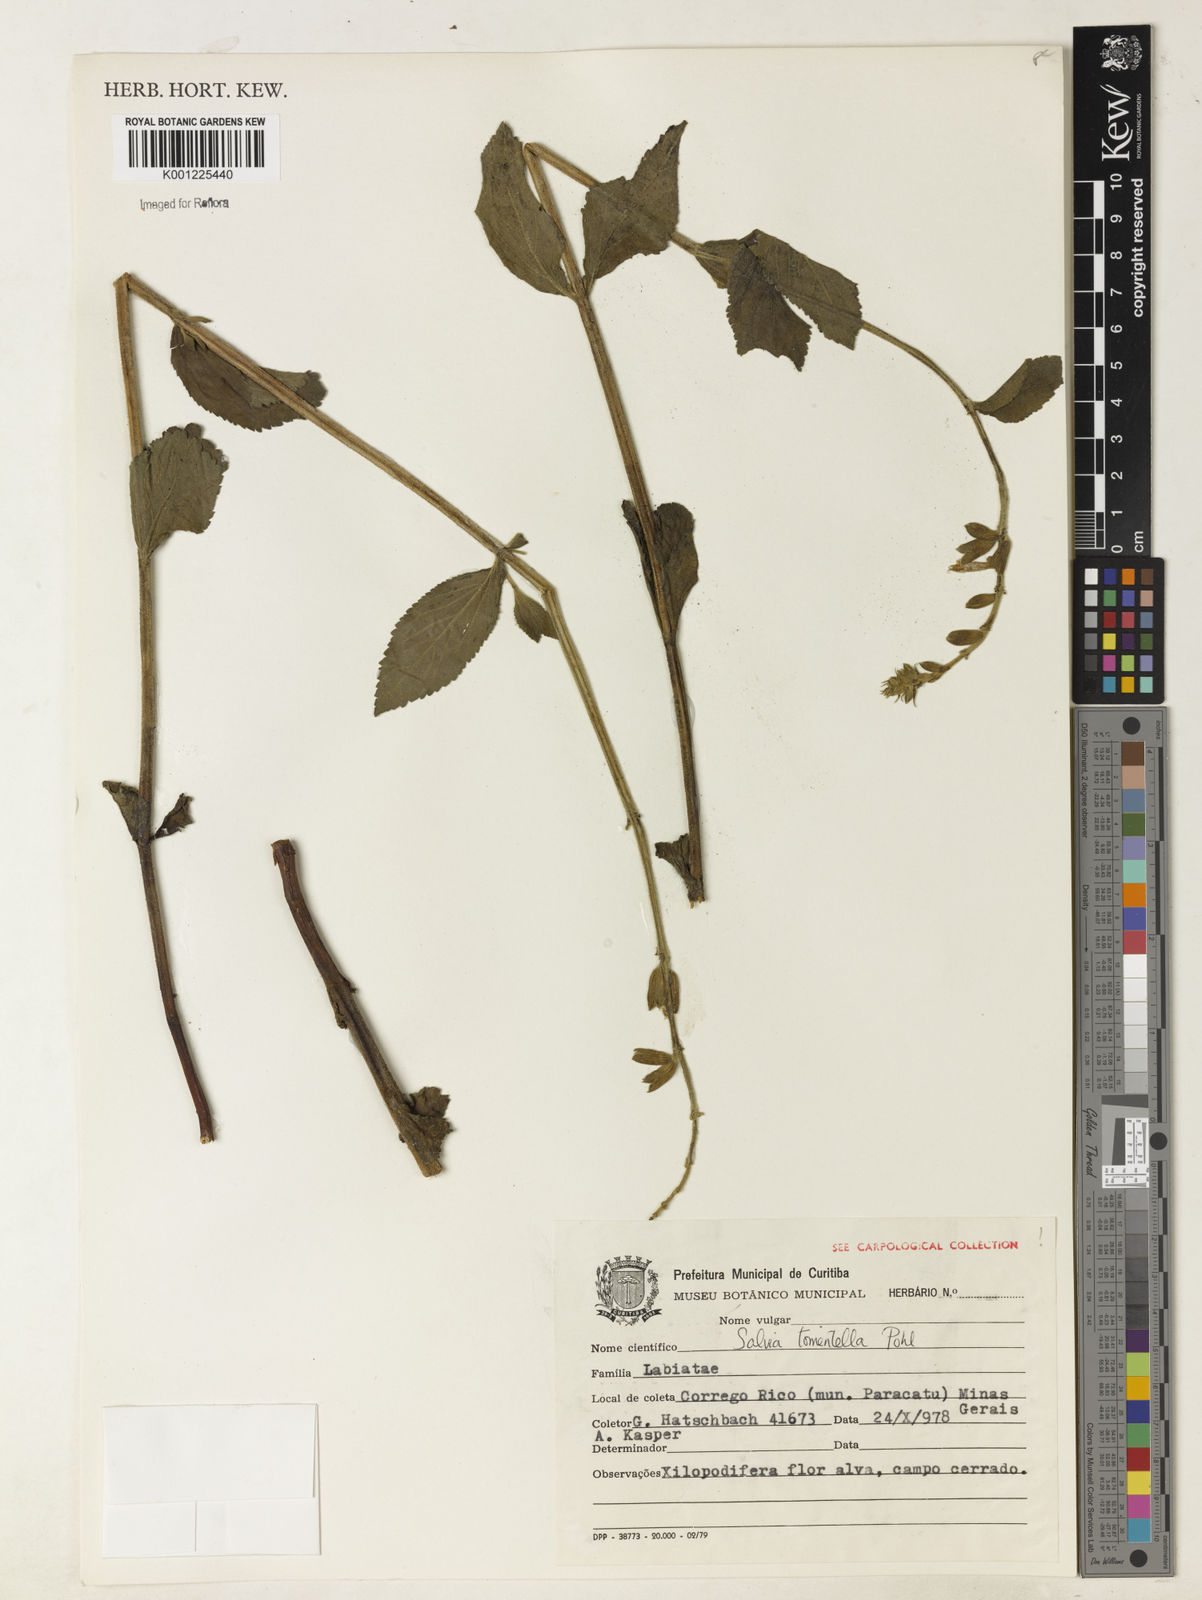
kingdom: Plantae
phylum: Tracheophyta
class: Magnoliopsida
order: Lamiales
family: Lamiaceae
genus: Salvia
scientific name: Salvia tomentella
